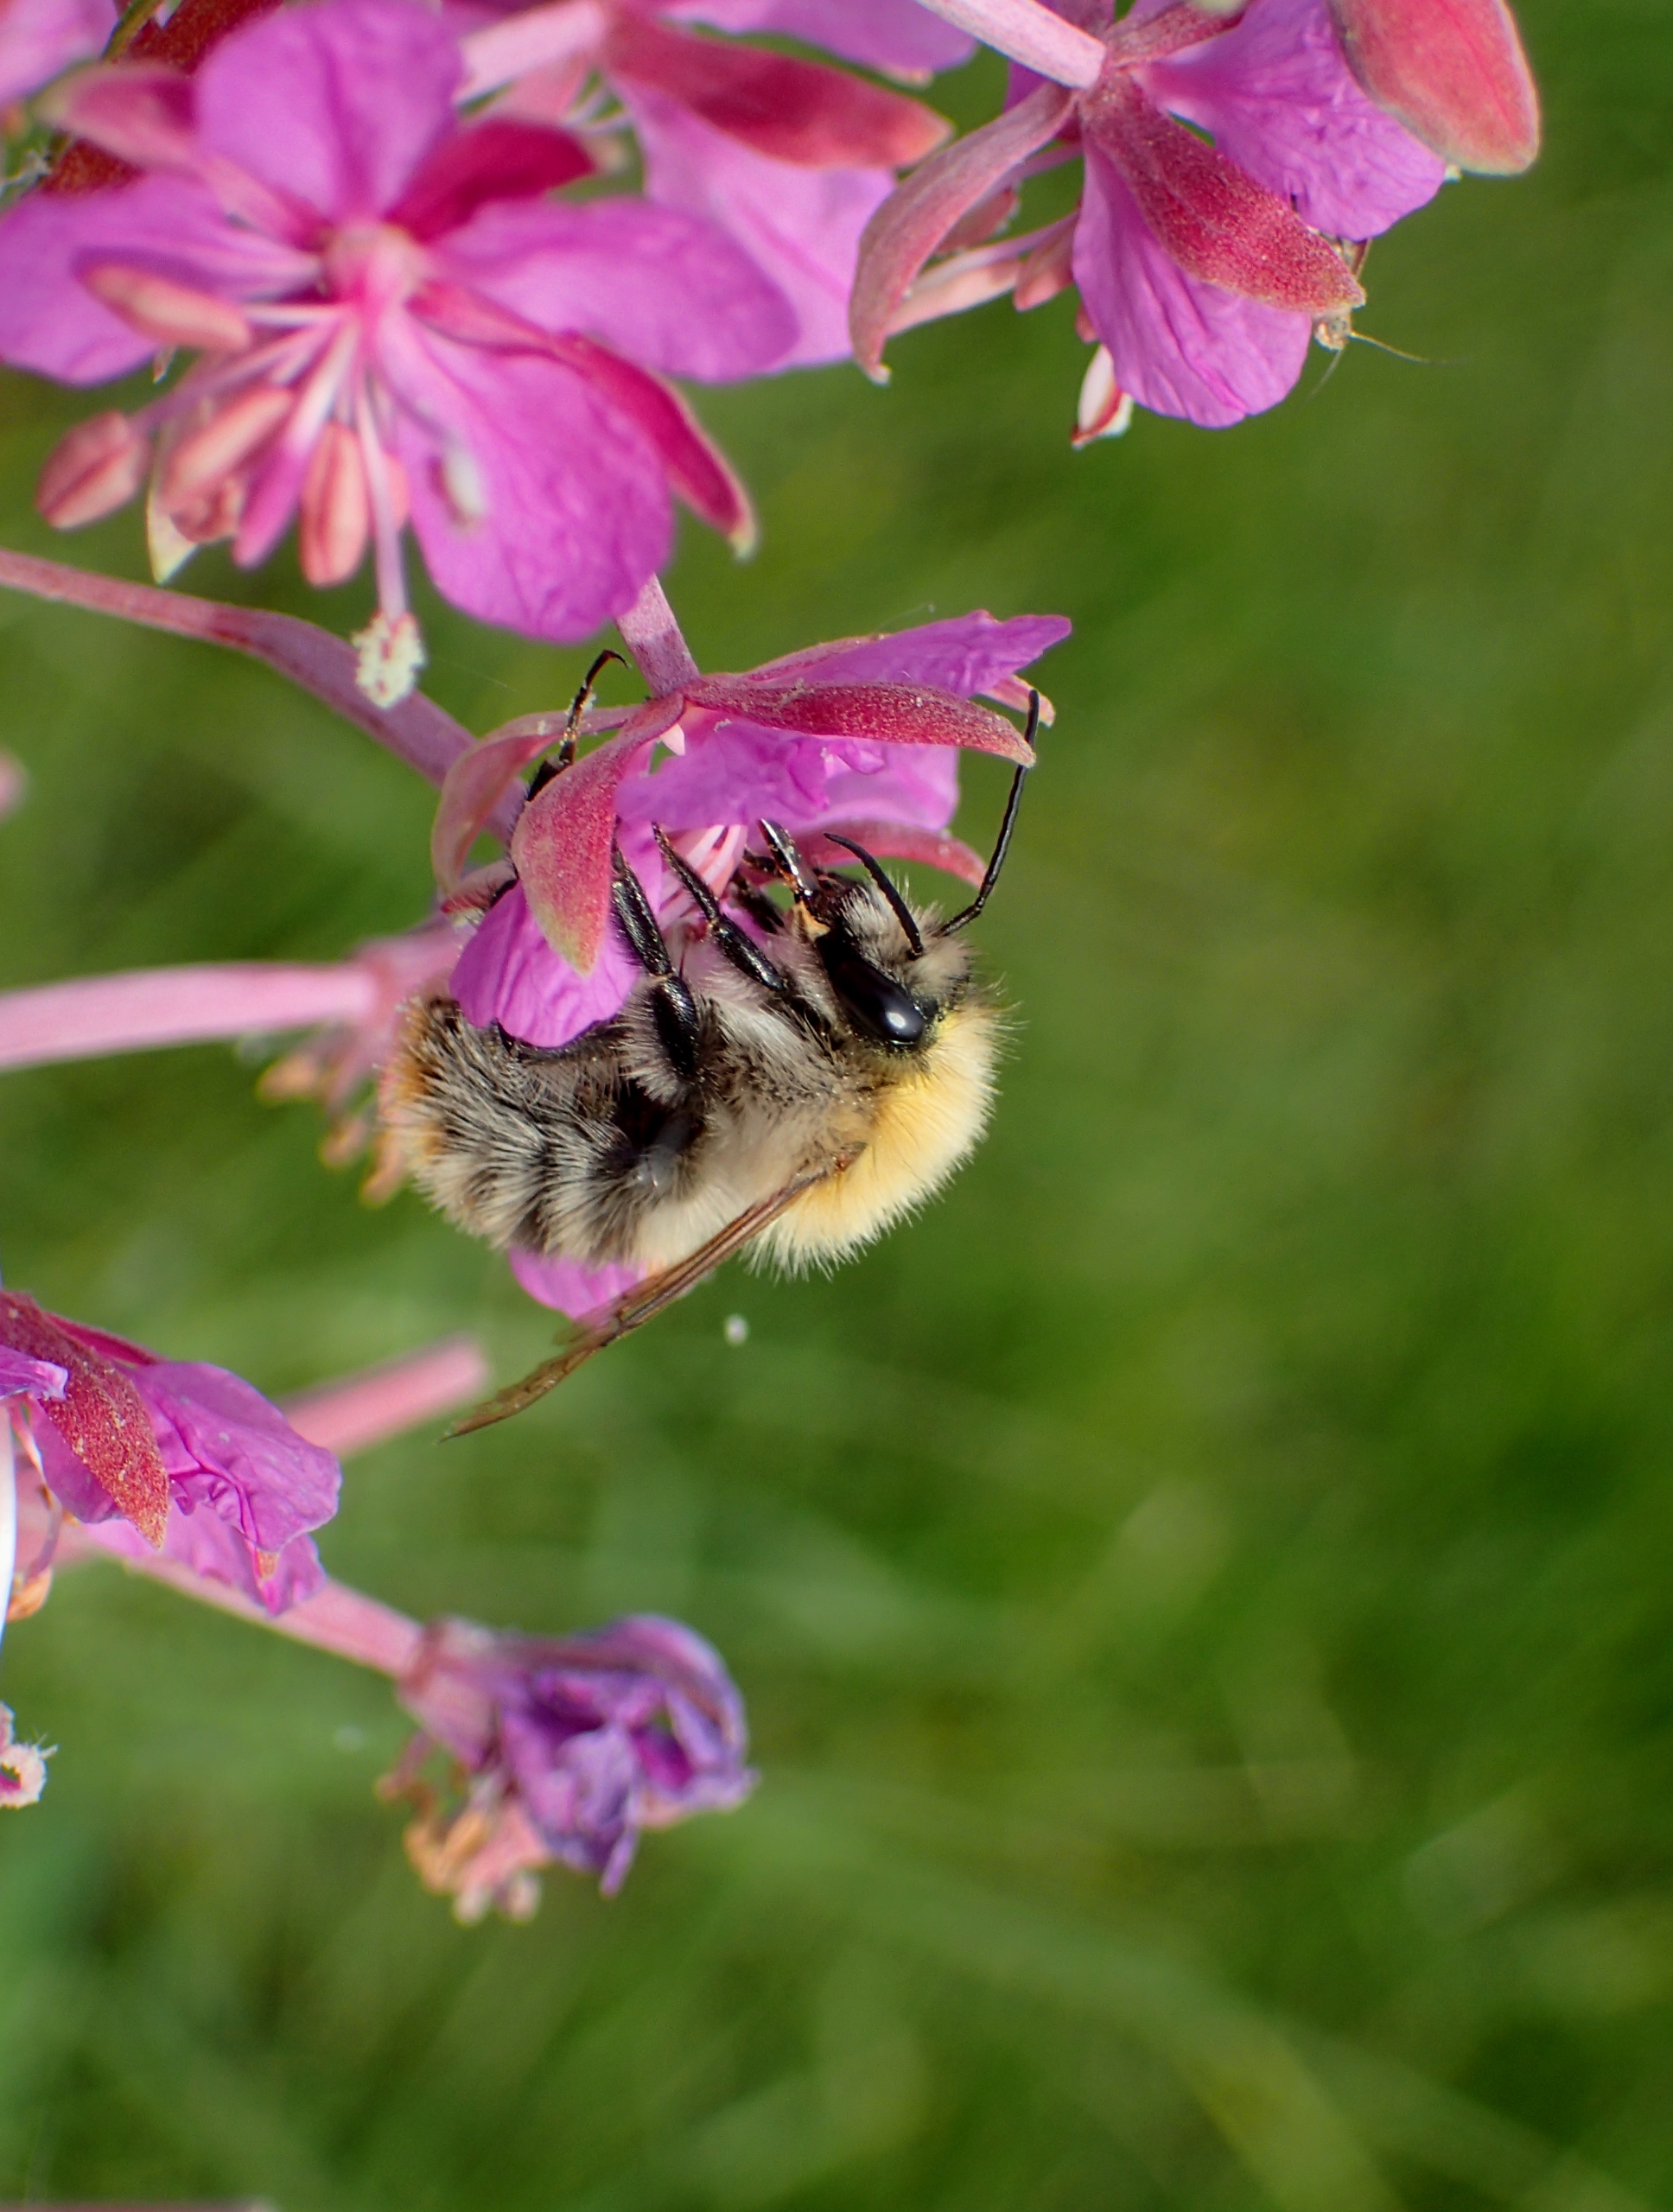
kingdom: Animalia
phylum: Arthropoda
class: Insecta
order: Hymenoptera
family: Apidae
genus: Bombus
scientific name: Bombus pascuorum
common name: Agerhumle
